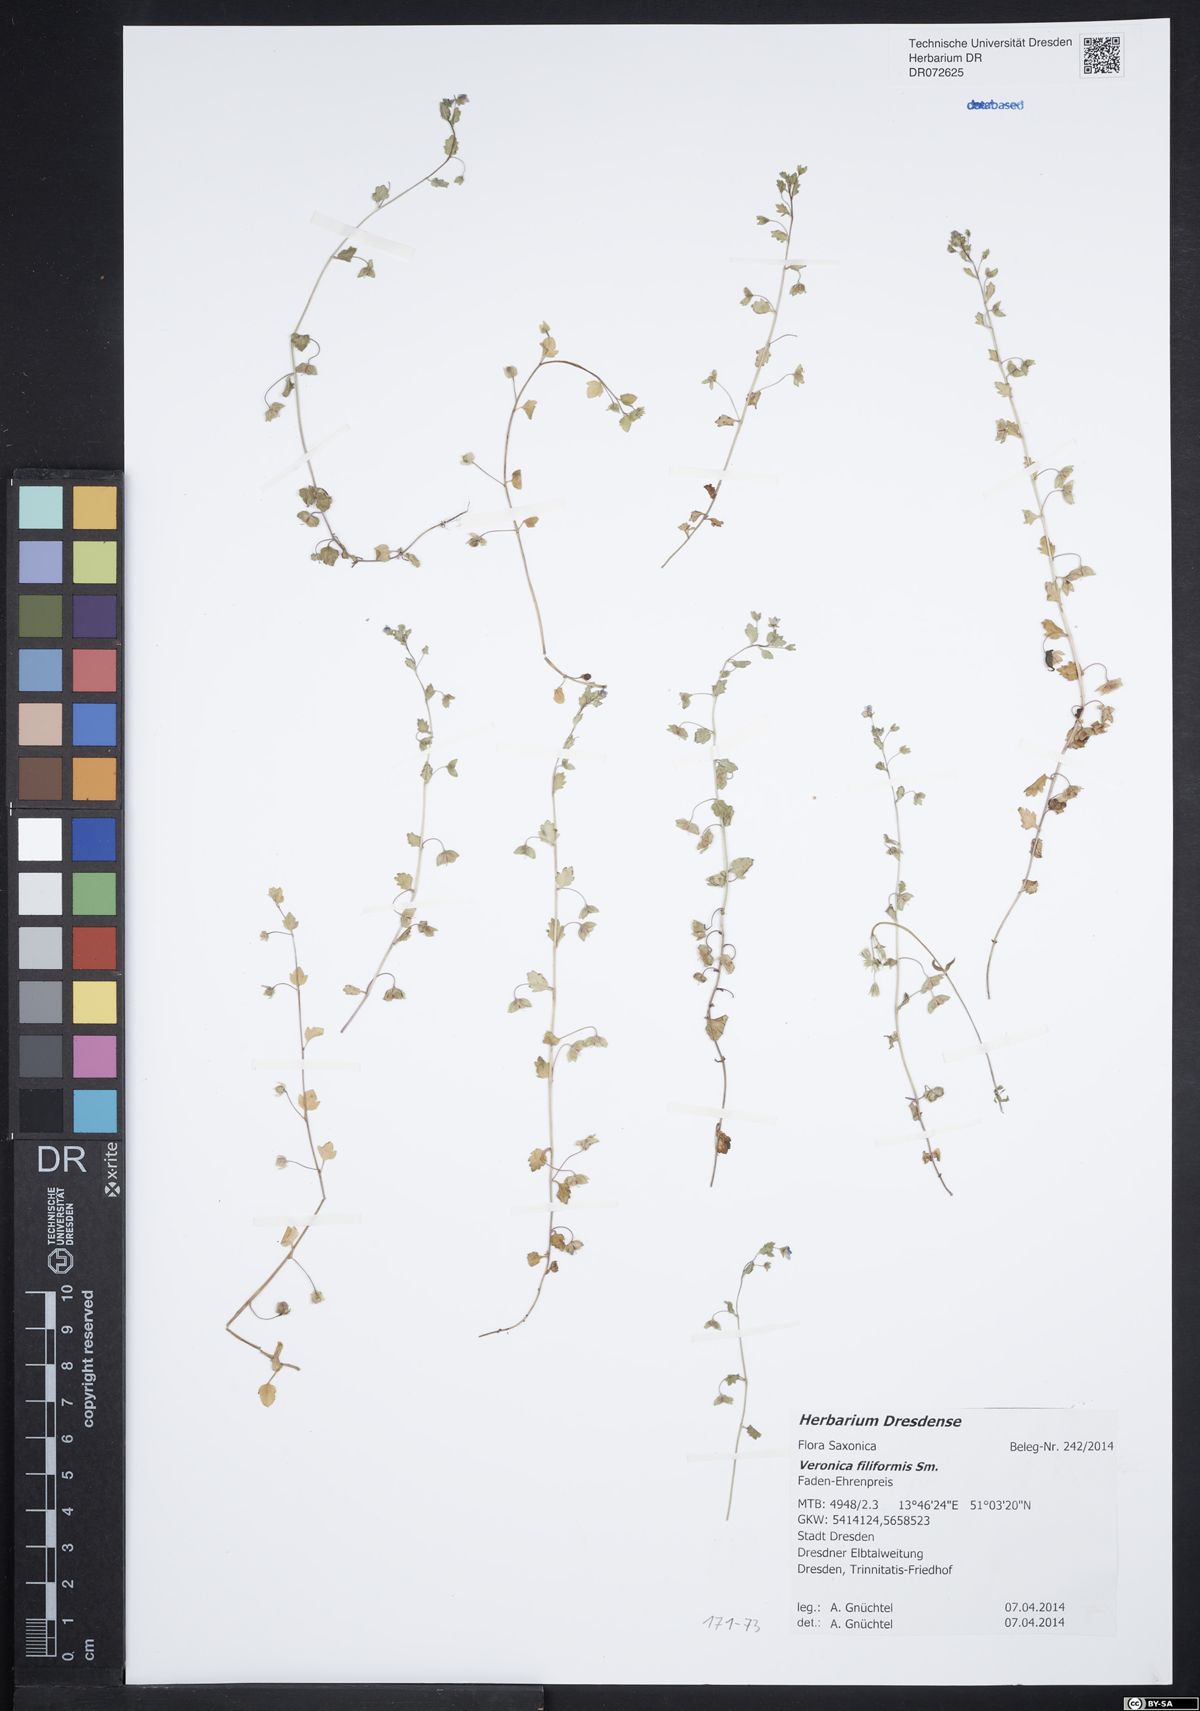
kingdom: Plantae
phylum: Tracheophyta
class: Magnoliopsida
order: Lamiales
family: Plantaginaceae
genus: Veronica
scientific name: Veronica filiformis
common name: Slender speedwell
